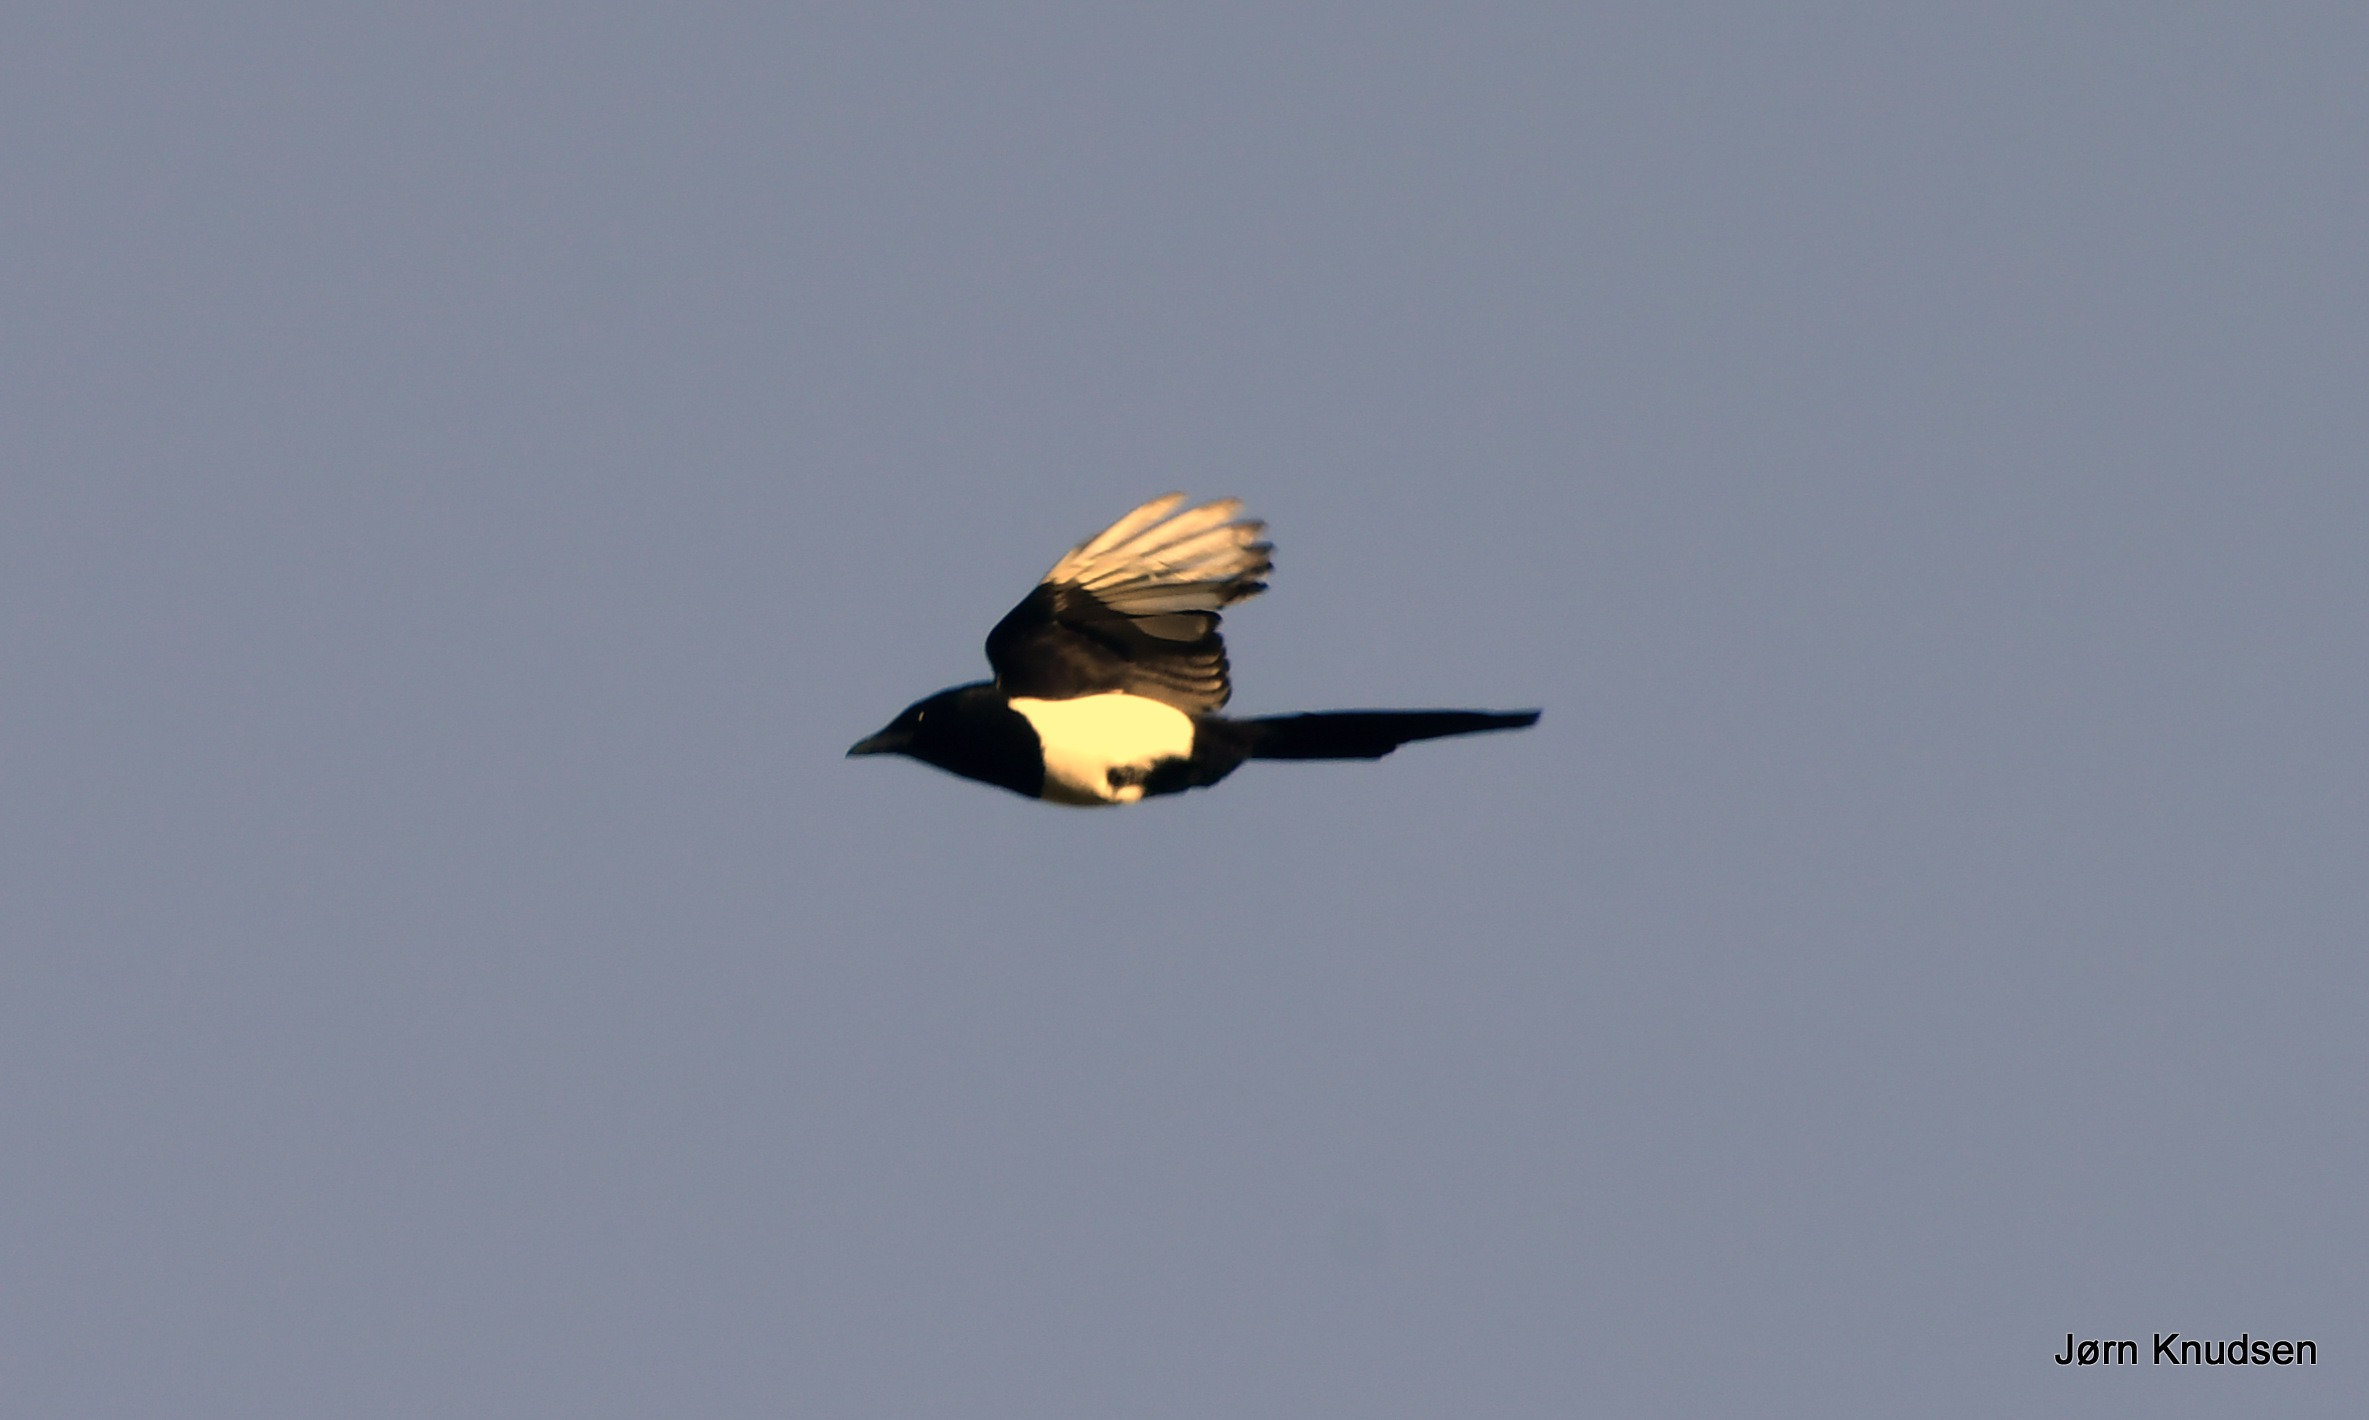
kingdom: Animalia
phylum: Chordata
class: Aves
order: Passeriformes
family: Corvidae
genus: Pica
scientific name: Pica pica
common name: Husskade
